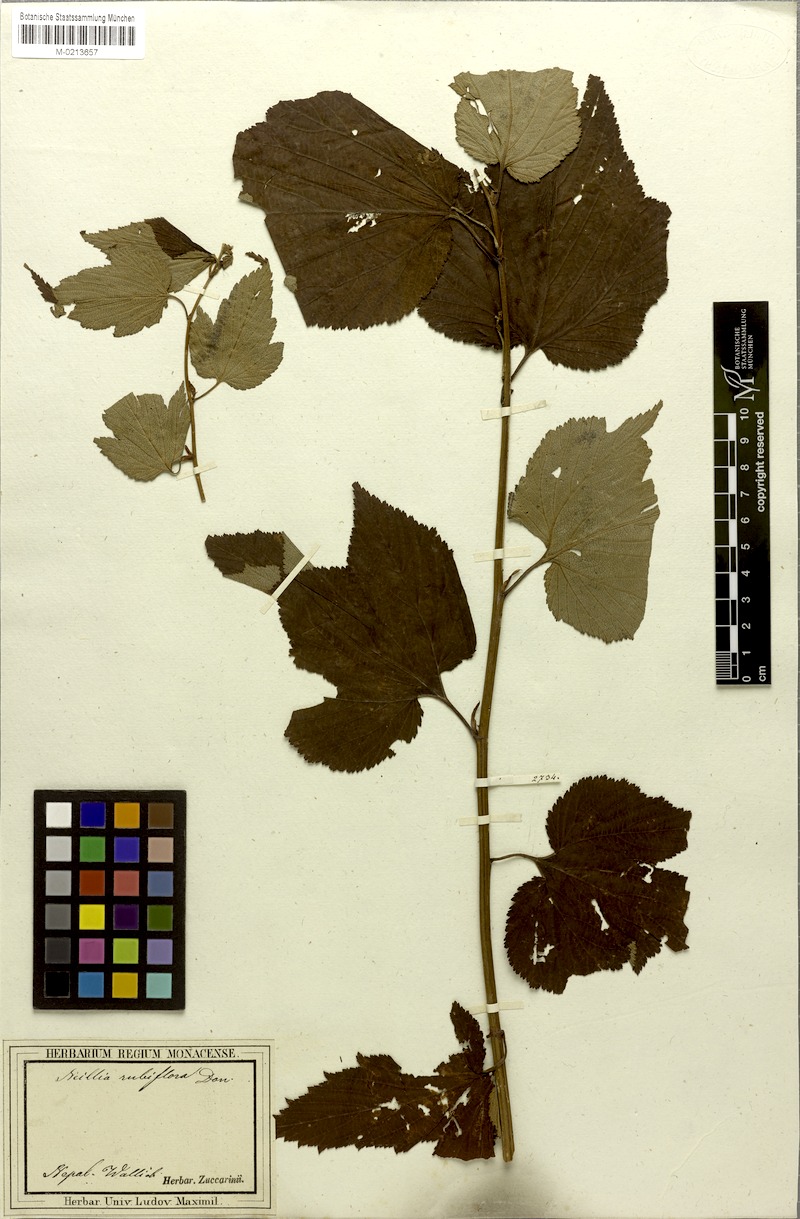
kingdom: Plantae
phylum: Tracheophyta
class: Magnoliopsida
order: Rosales
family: Rosaceae
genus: Neillia
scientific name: Neillia rubiflora
